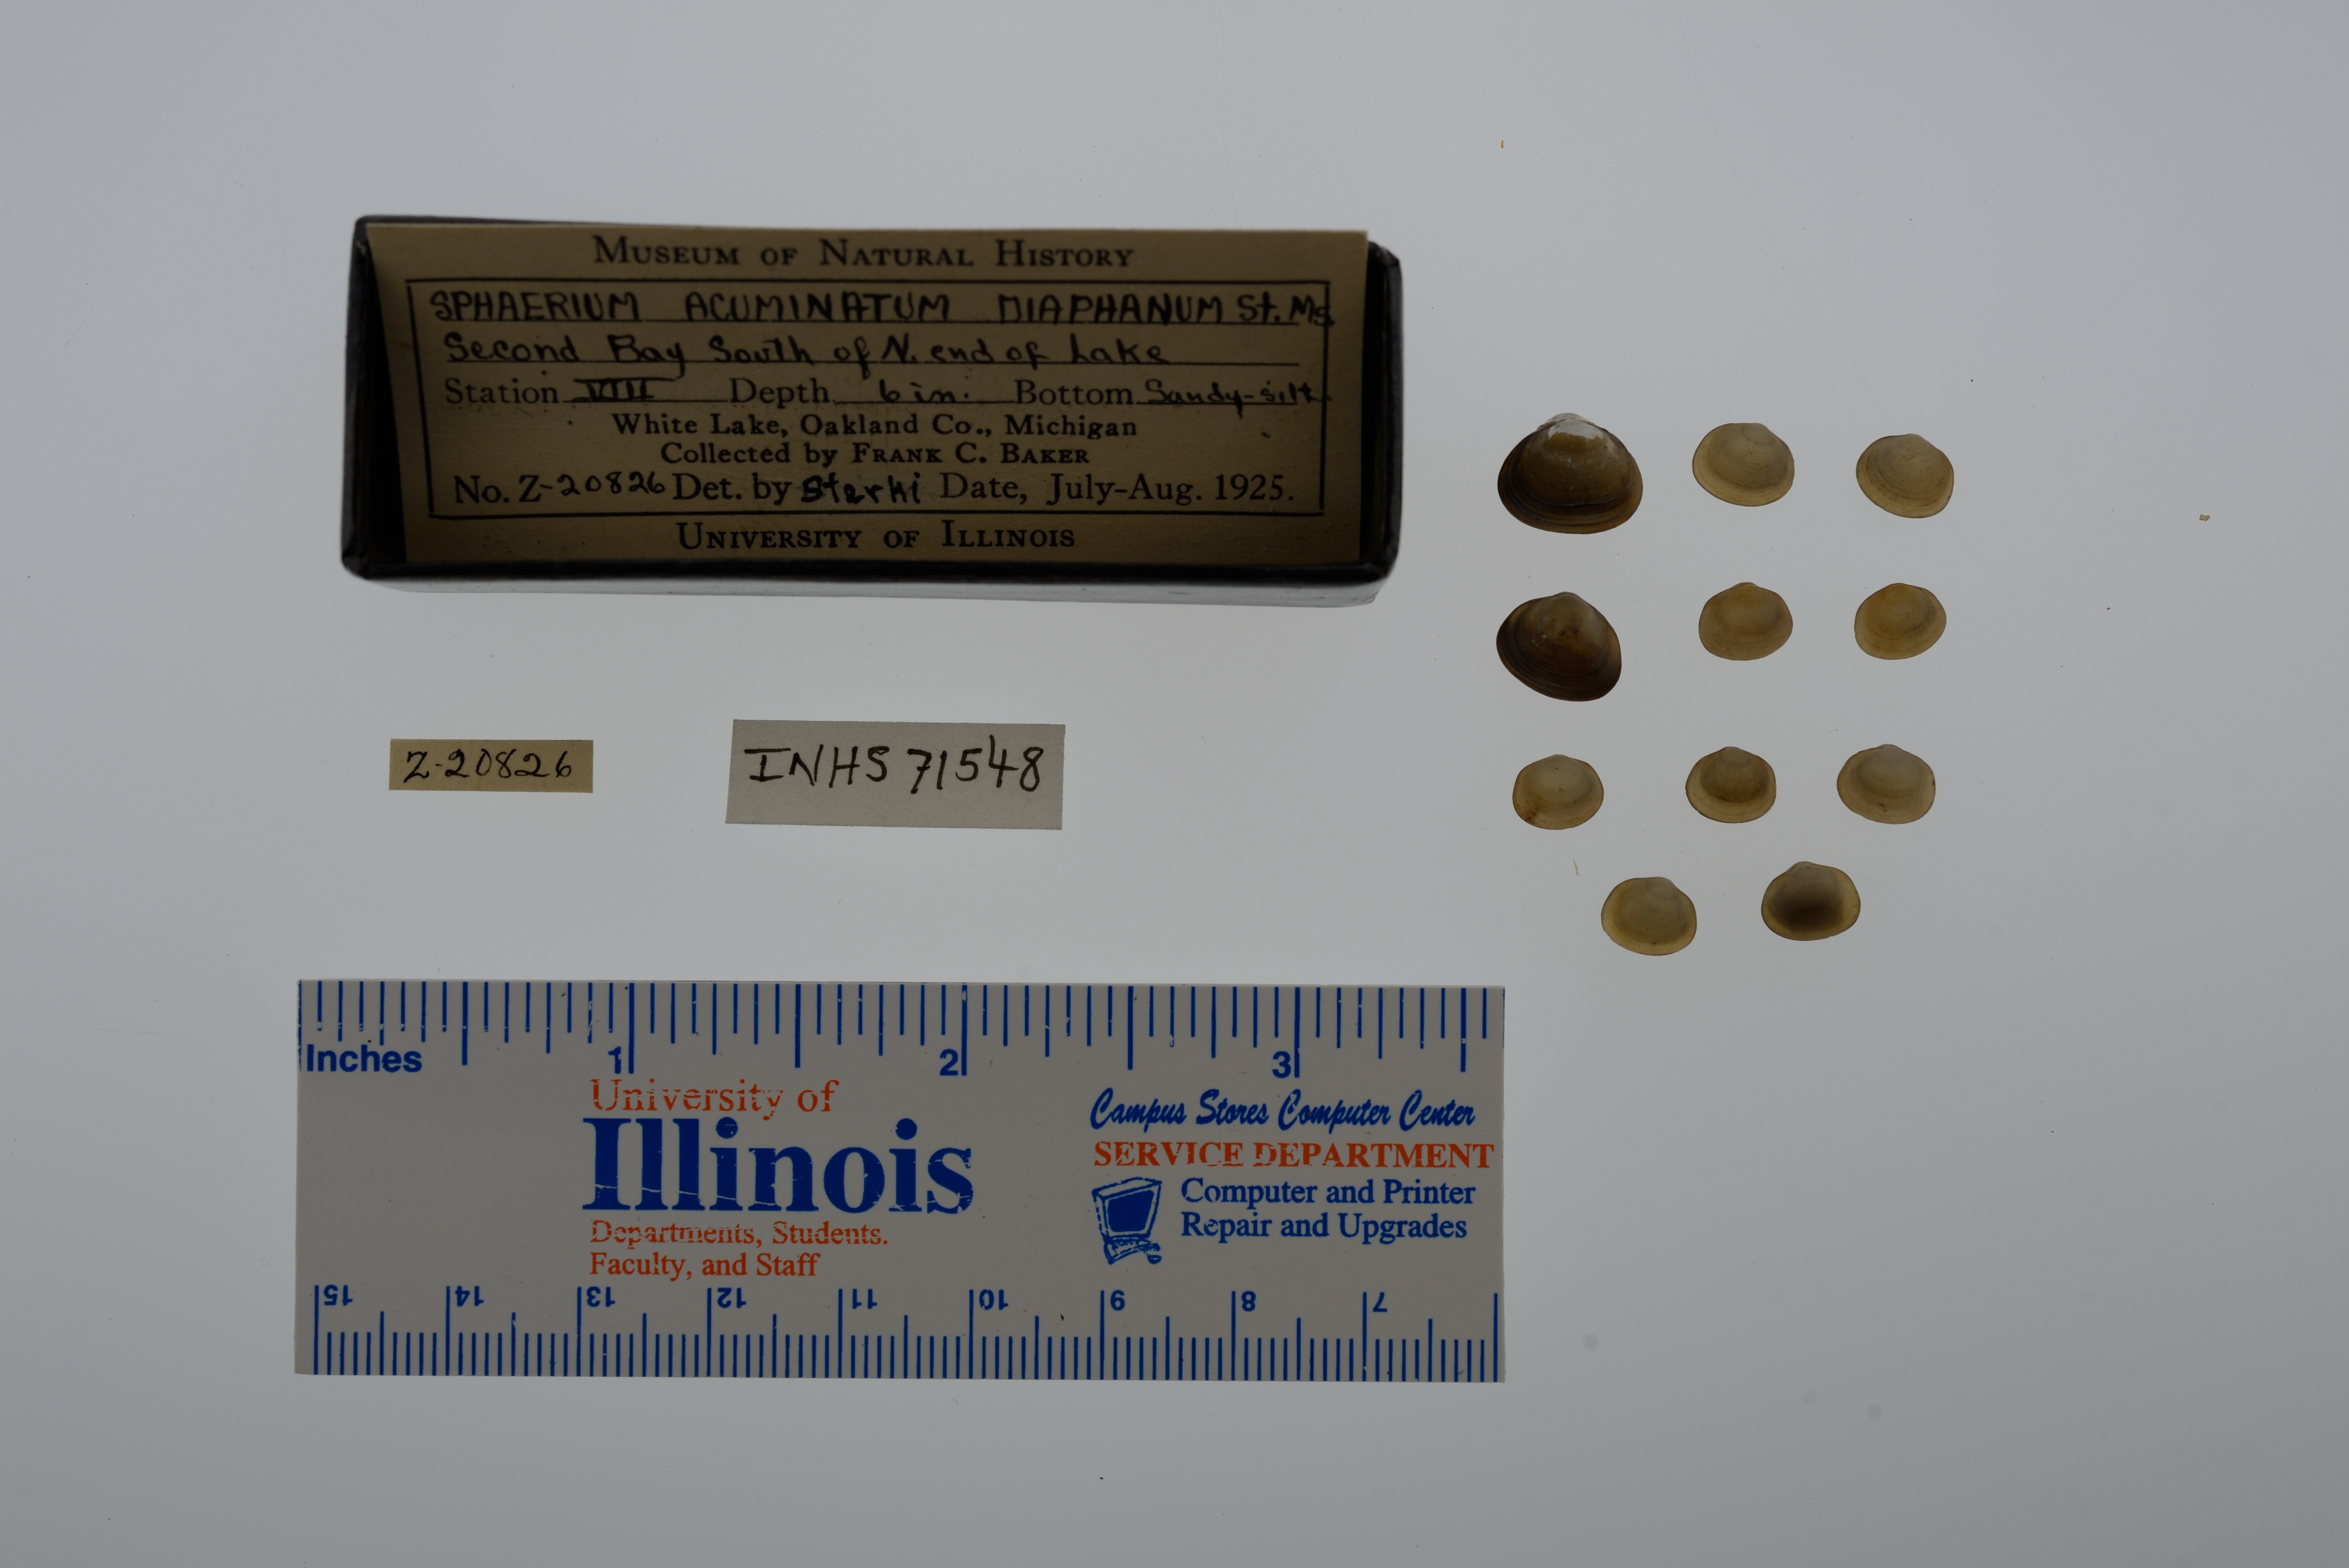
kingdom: Animalia
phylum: Mollusca
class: Bivalvia
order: Sphaeriida
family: Sphaeriidae
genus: Sphaerium
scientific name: Sphaerium striatinum
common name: Striated fingernailclam
